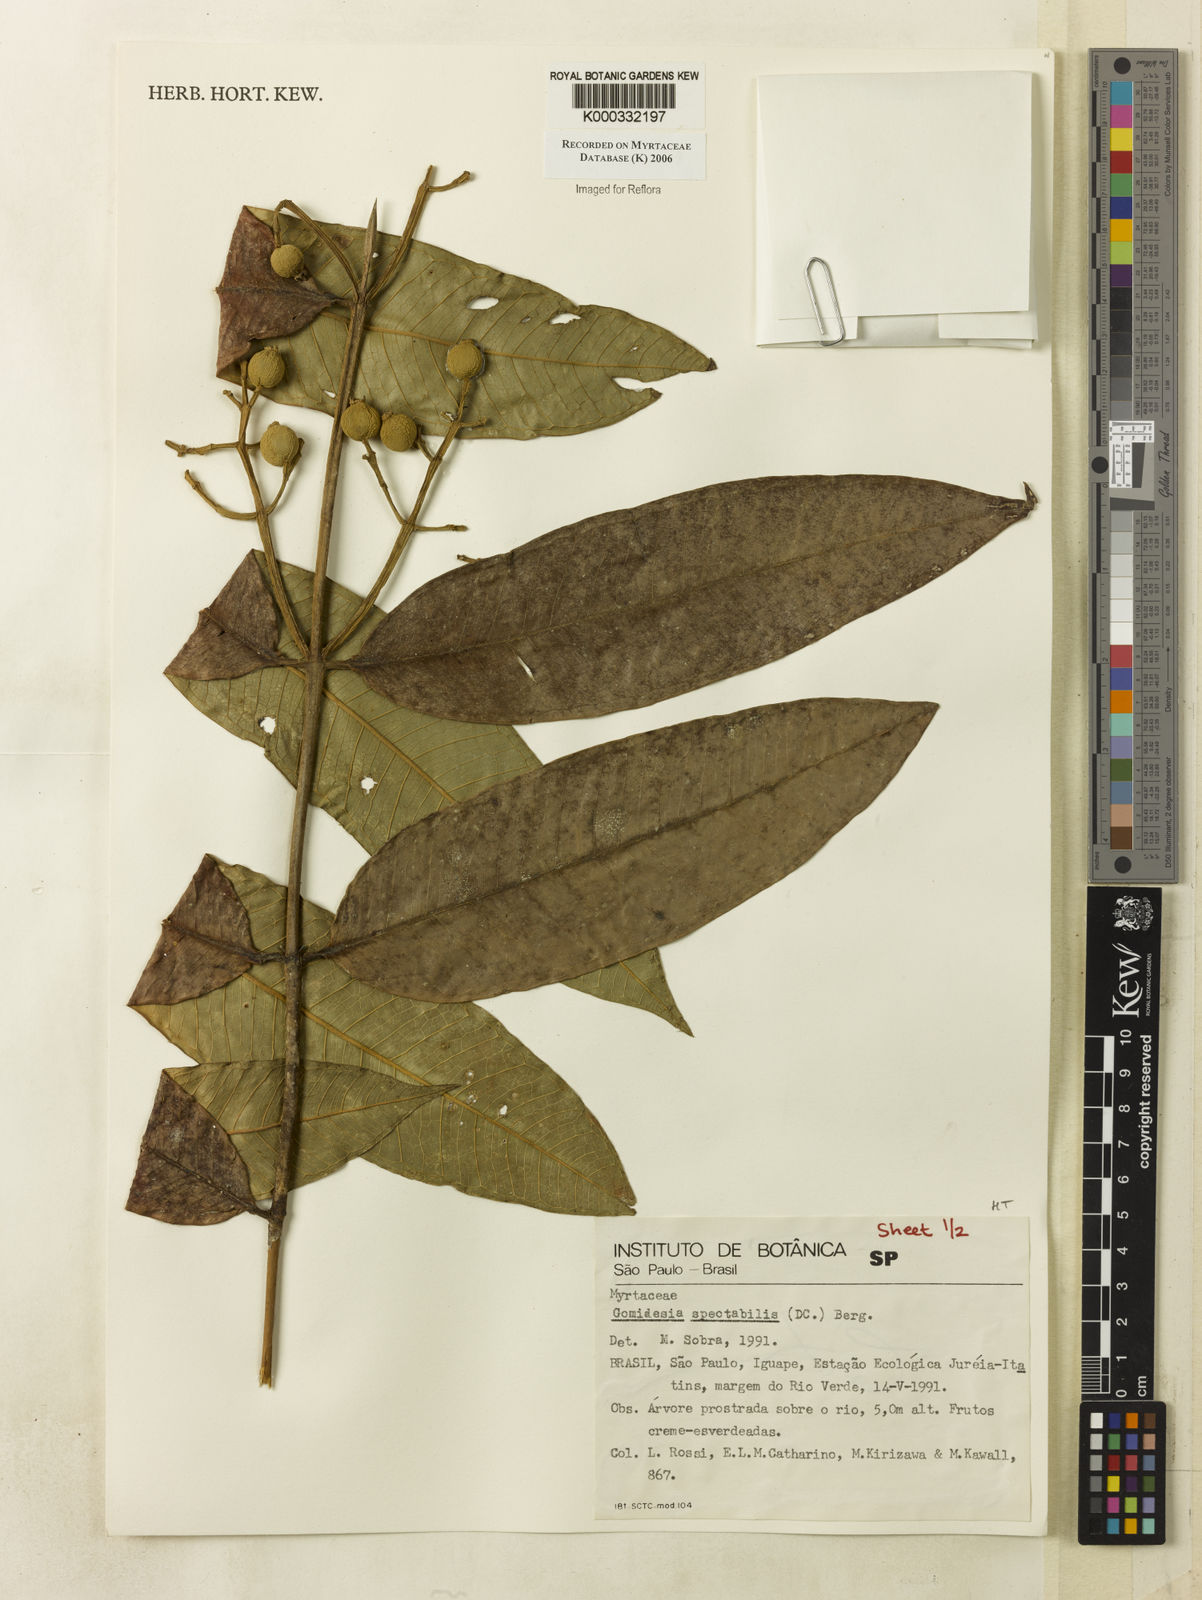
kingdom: Plantae
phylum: Tracheophyta
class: Magnoliopsida
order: Myrtales
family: Myrtaceae
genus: Myrcia
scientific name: Myrcia spectabilis
